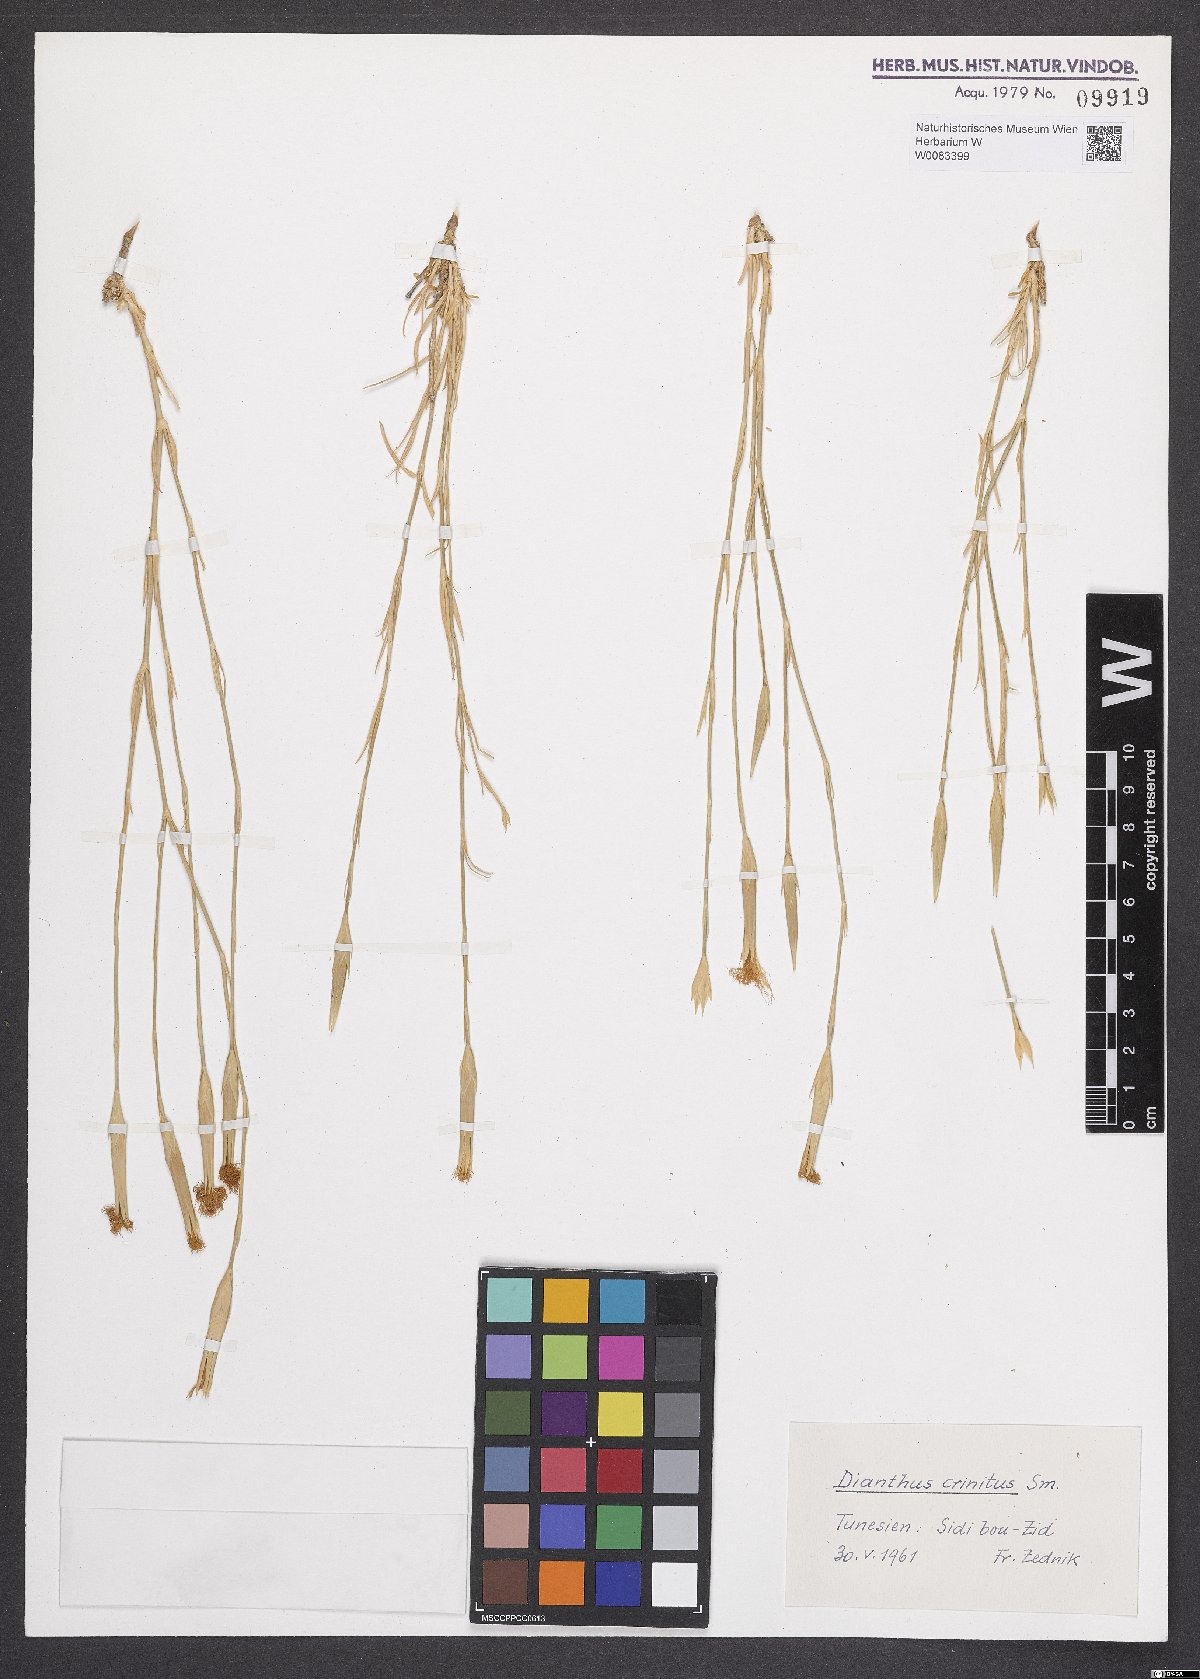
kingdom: Plantae
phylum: Tracheophyta
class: Magnoliopsida
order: Caryophyllales
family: Caryophyllaceae
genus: Dianthus
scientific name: Dianthus crinitus
